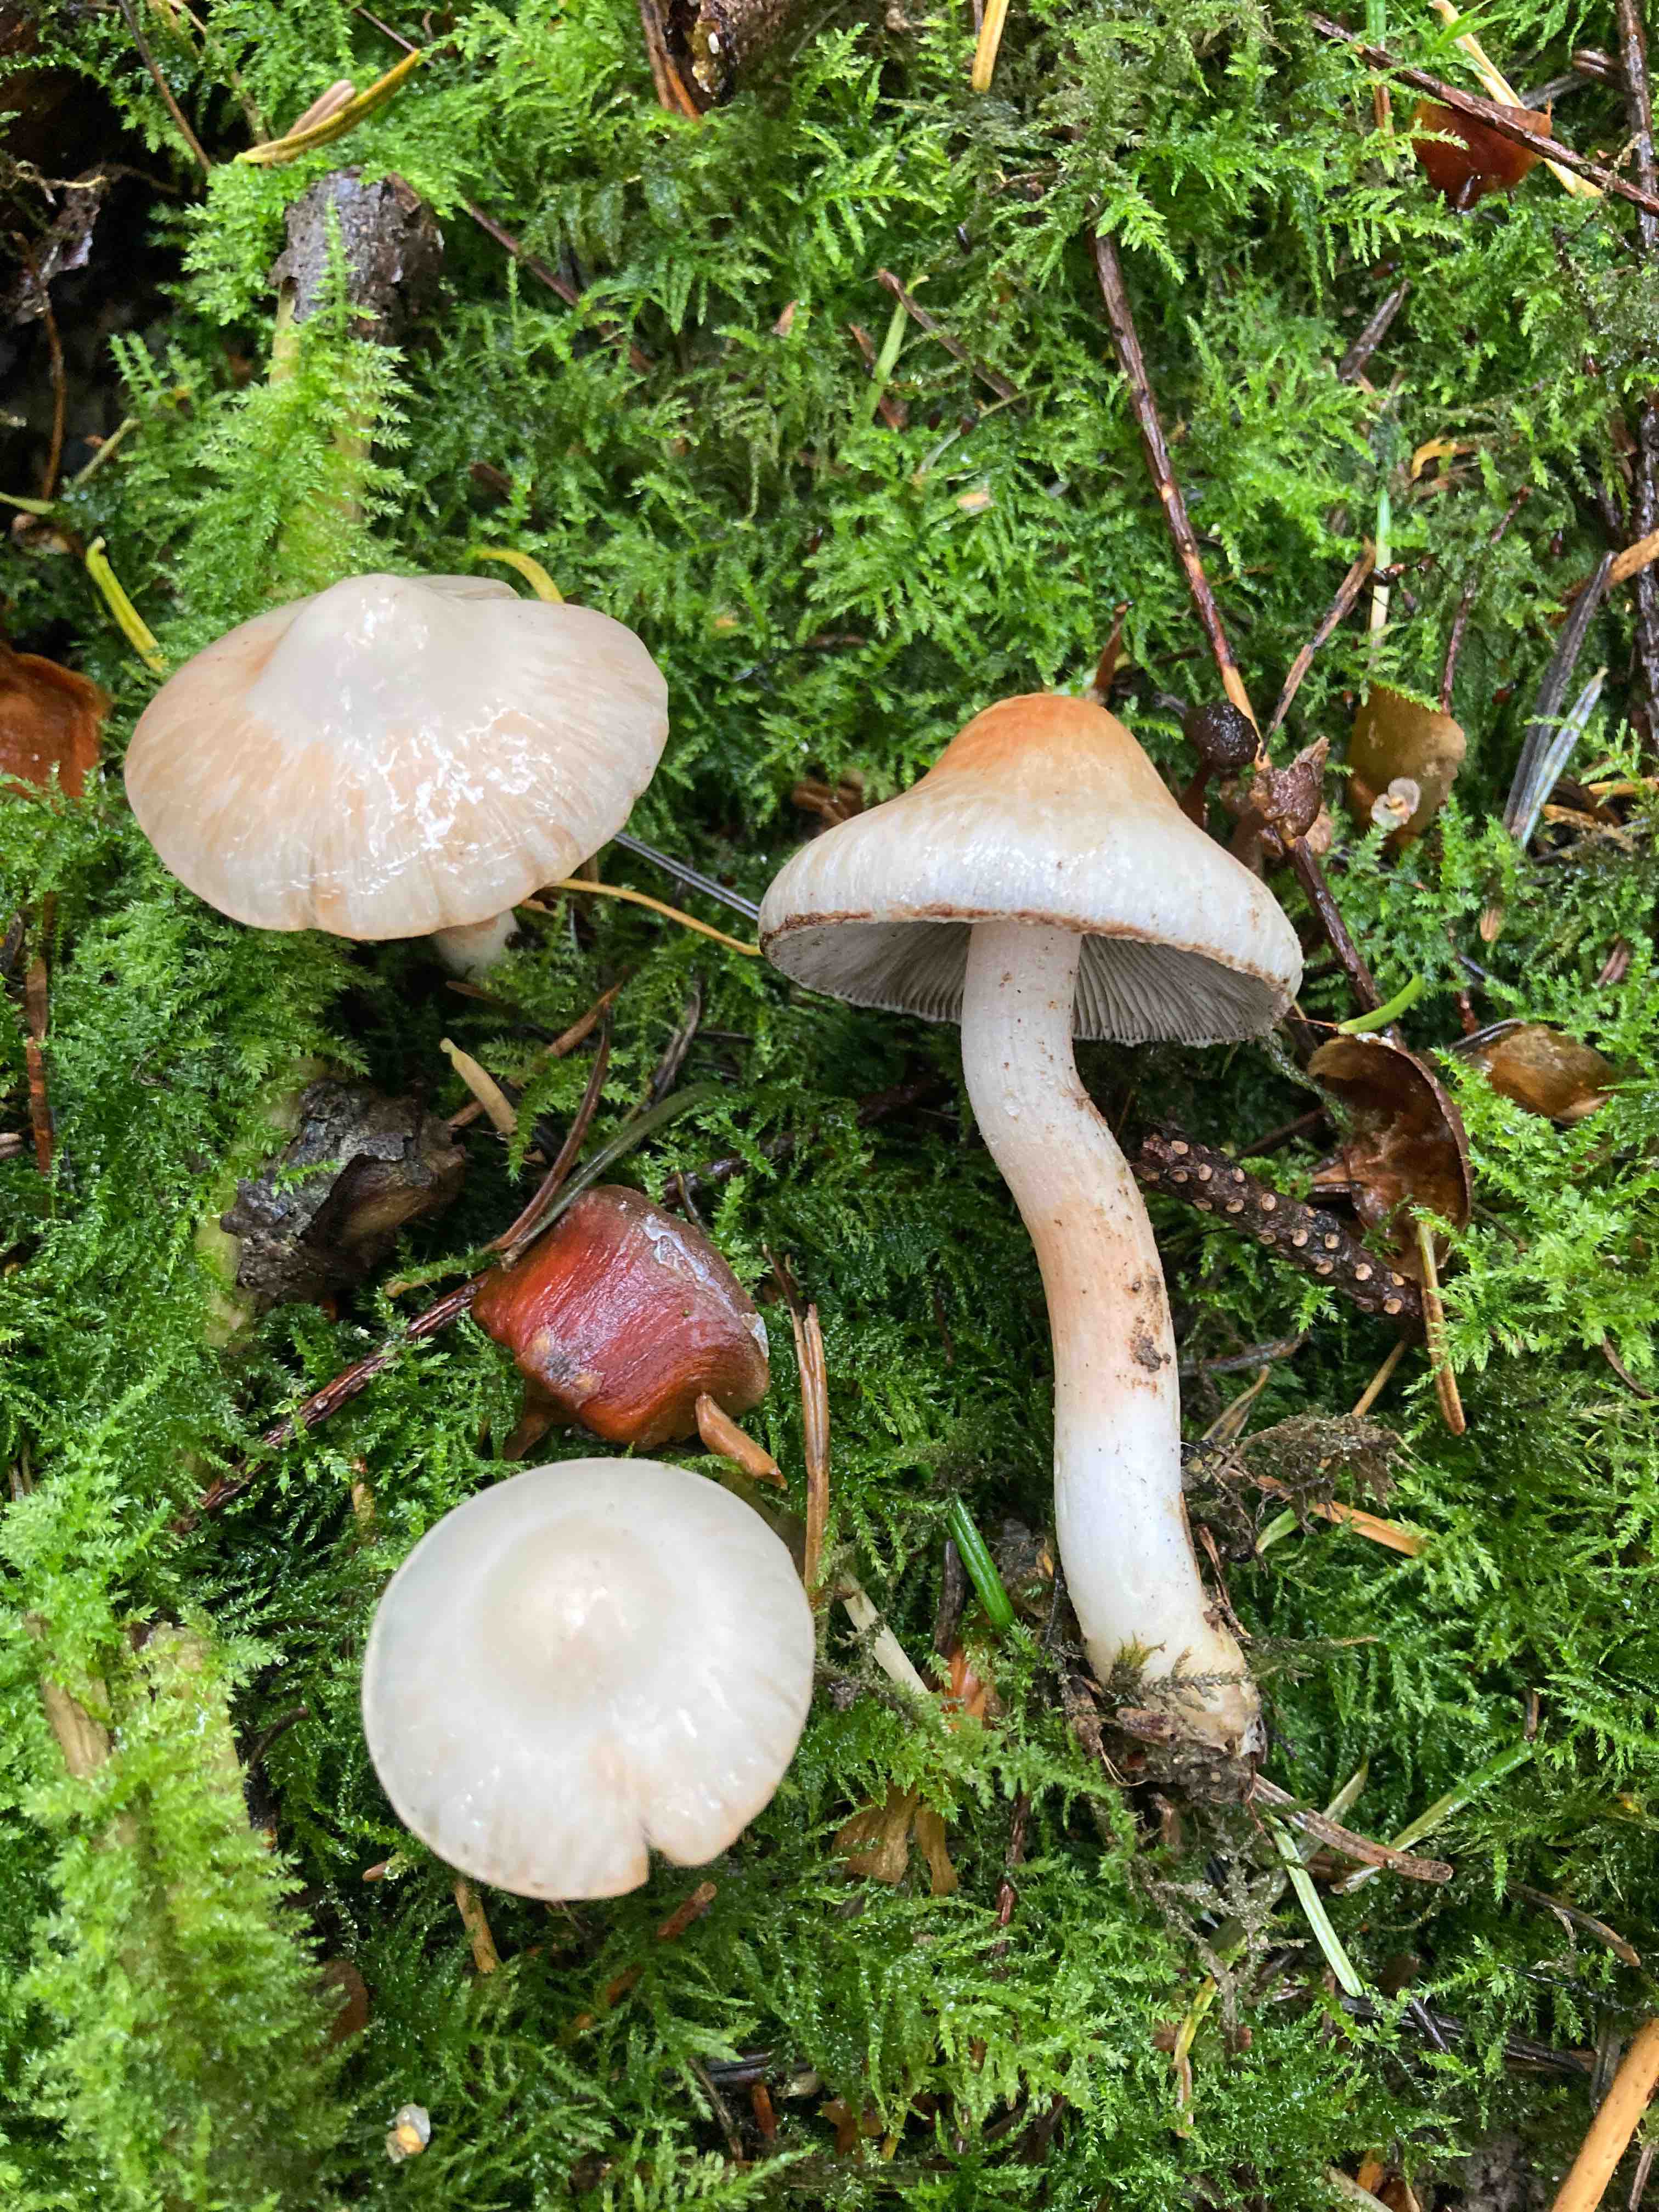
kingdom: Fungi
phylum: Basidiomycota
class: Agaricomycetes
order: Agaricales
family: Inocybaceae
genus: Inocybe
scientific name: Inocybe
